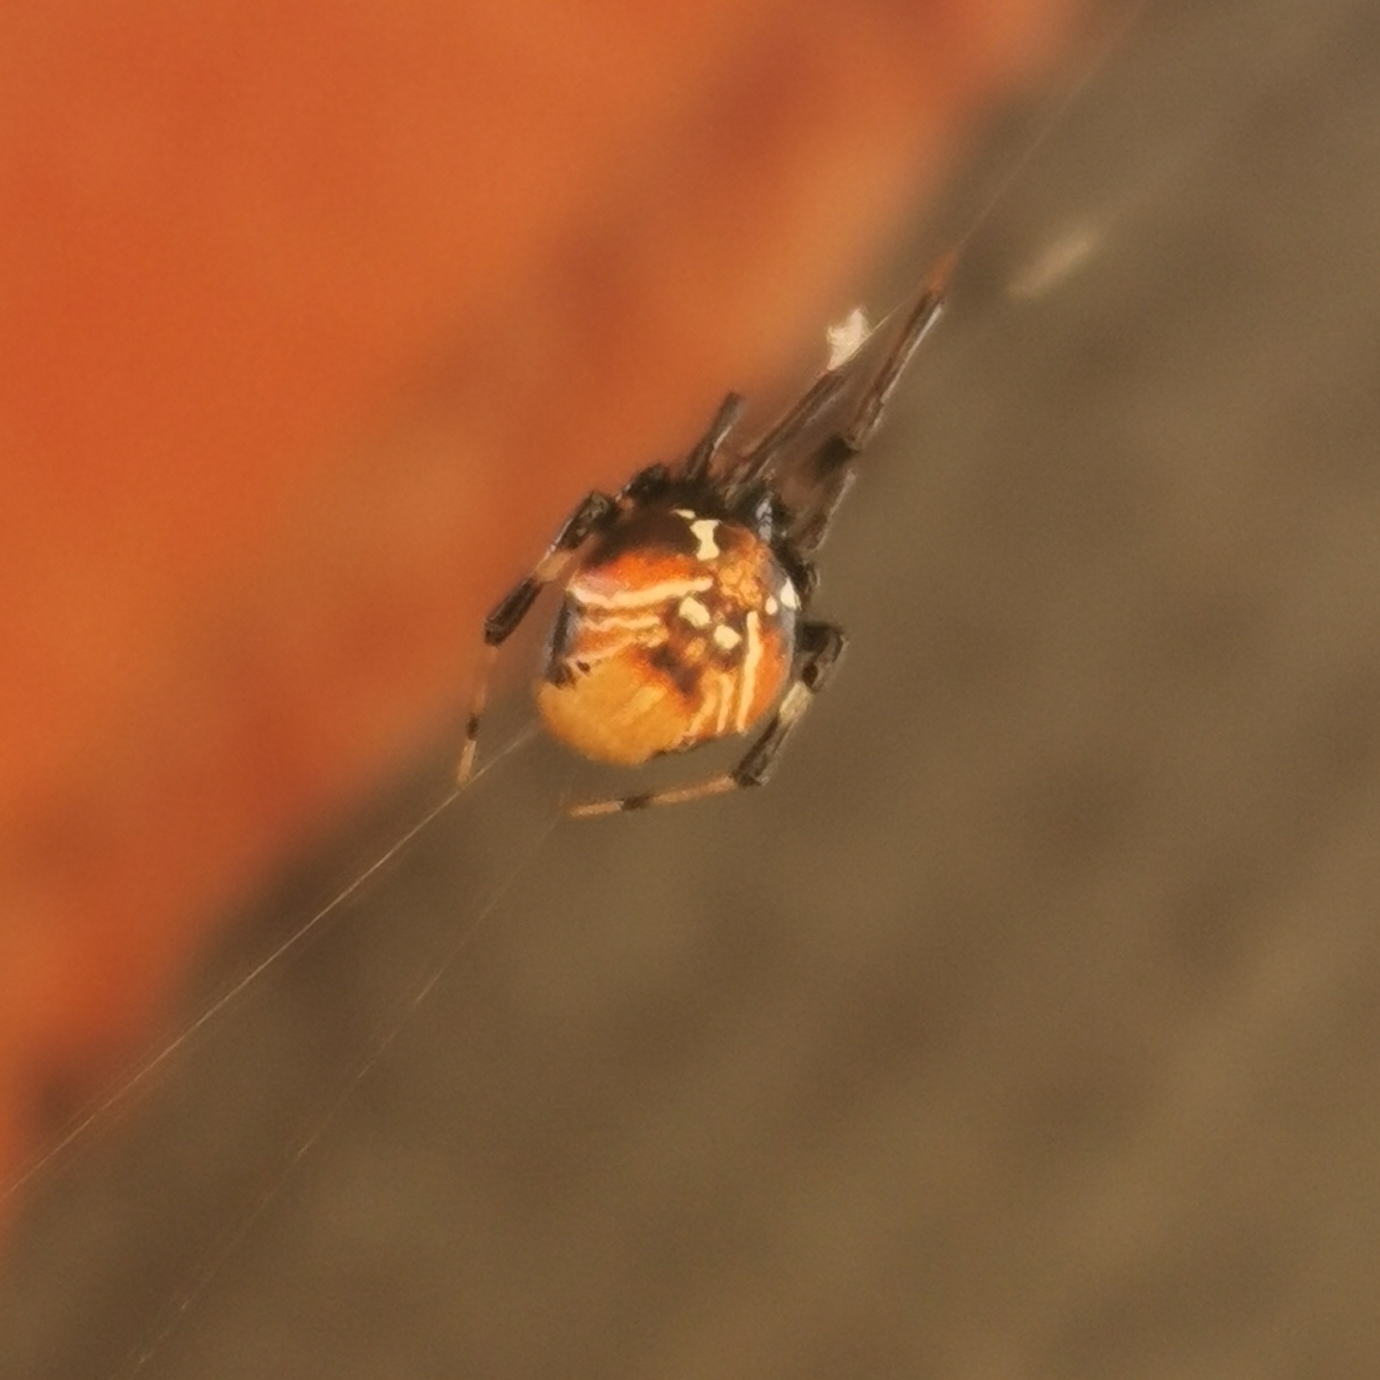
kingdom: Animalia
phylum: Arthropoda
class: Arachnida
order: Araneae
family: Theridiidae
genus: Parasteatoda
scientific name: Parasteatoda lunata
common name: Bladhyttespinder
